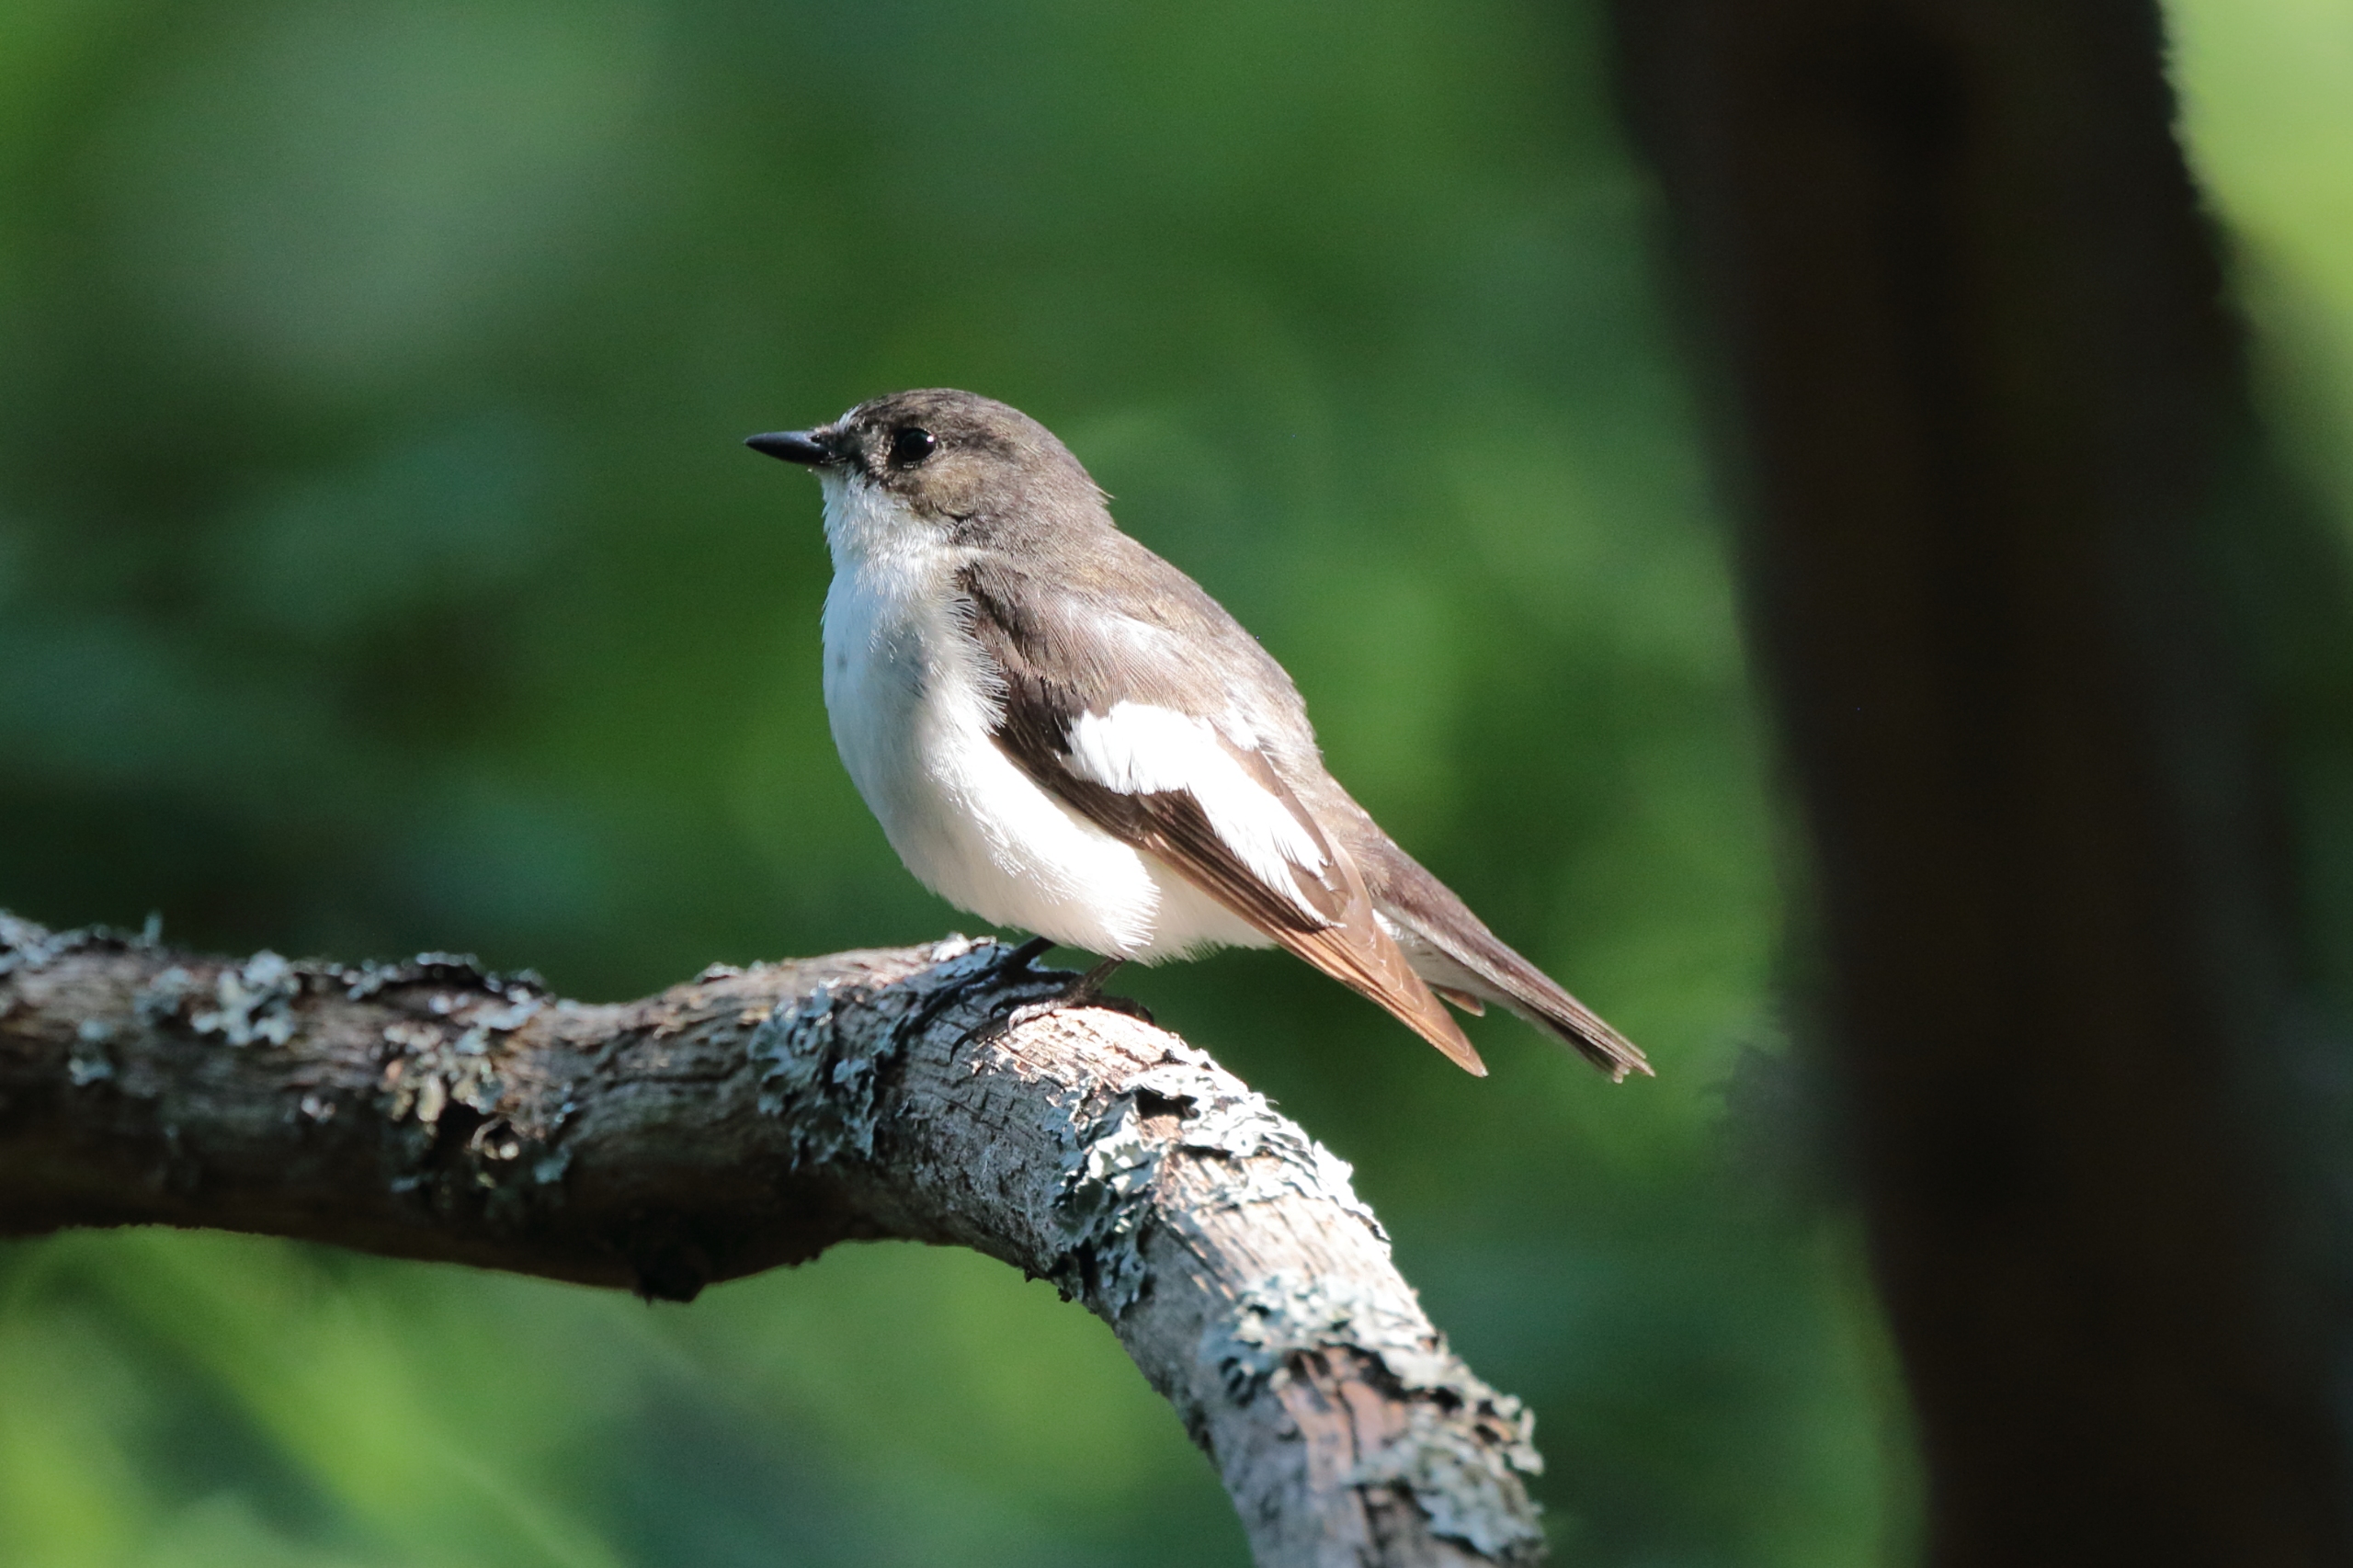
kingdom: Animalia
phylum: Chordata
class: Aves
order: Passeriformes
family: Muscicapidae
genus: Ficedula
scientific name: Ficedula hypoleuca
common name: Broget fluesnapper
